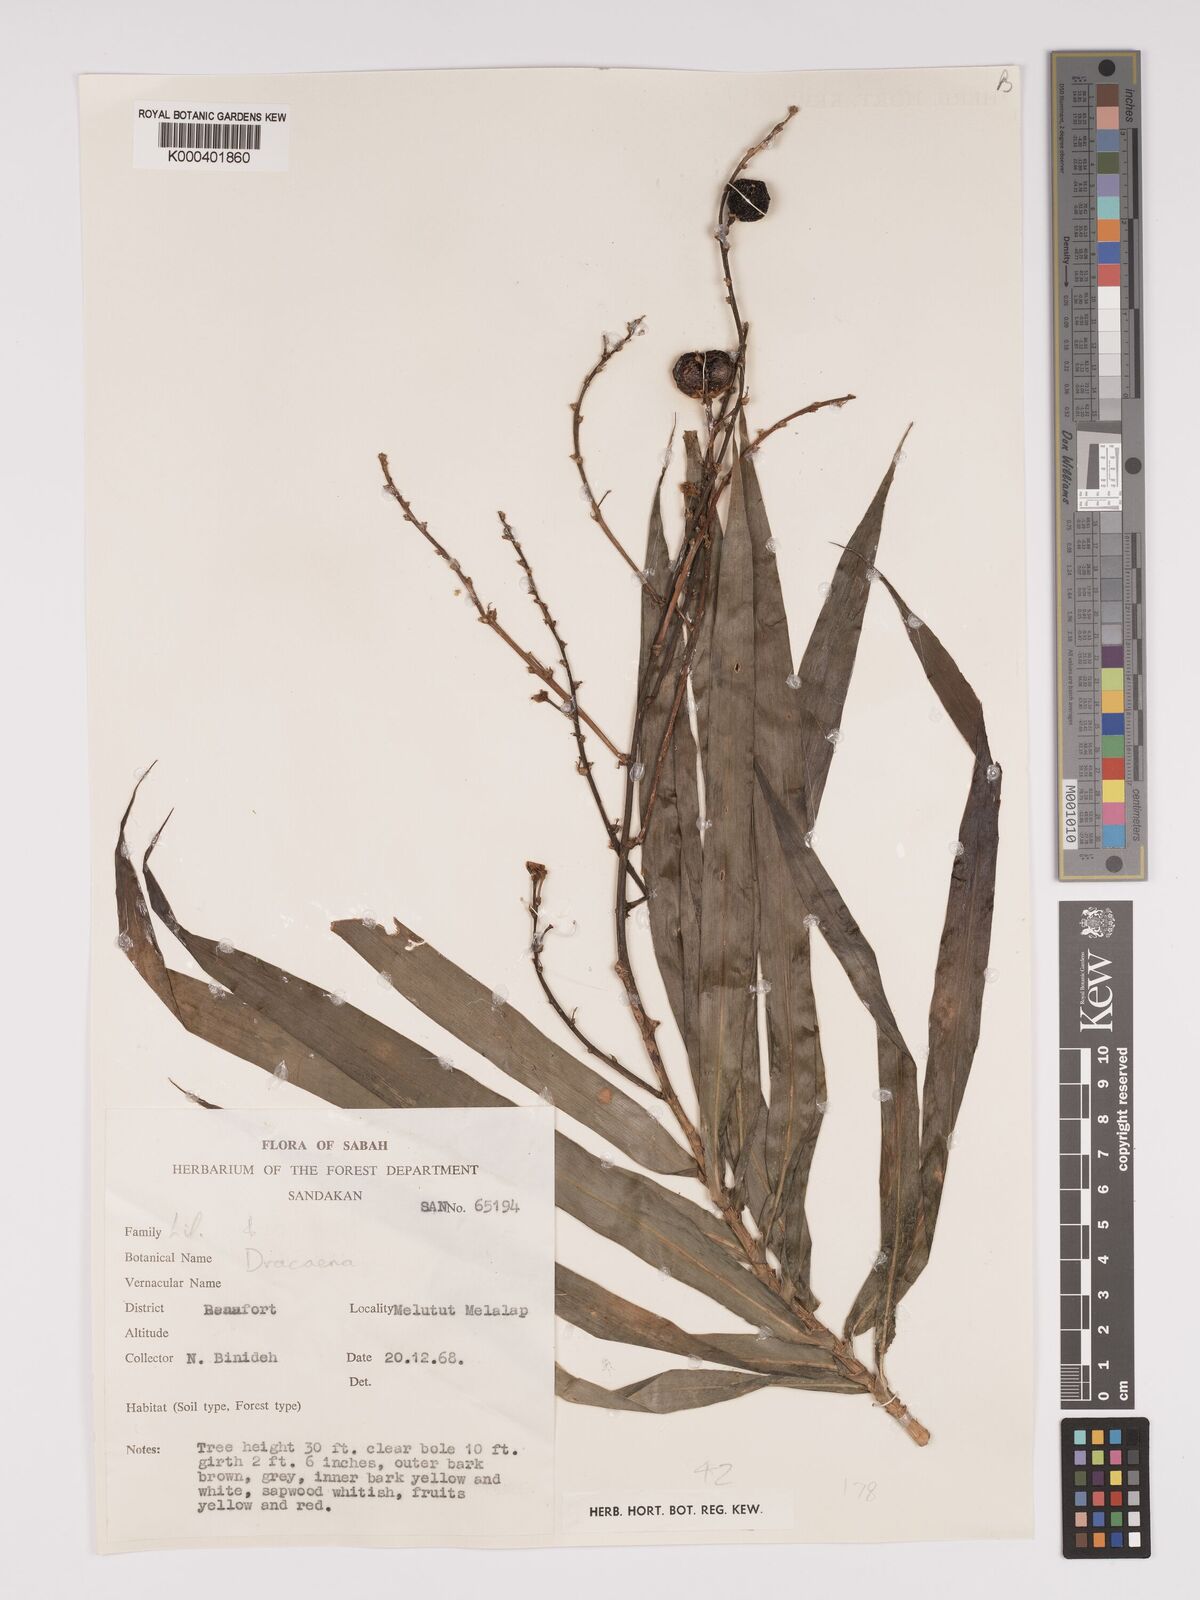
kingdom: Plantae
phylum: Tracheophyta
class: Liliopsida
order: Asparagales
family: Asparagaceae
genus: Dracaena
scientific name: Dracaena
